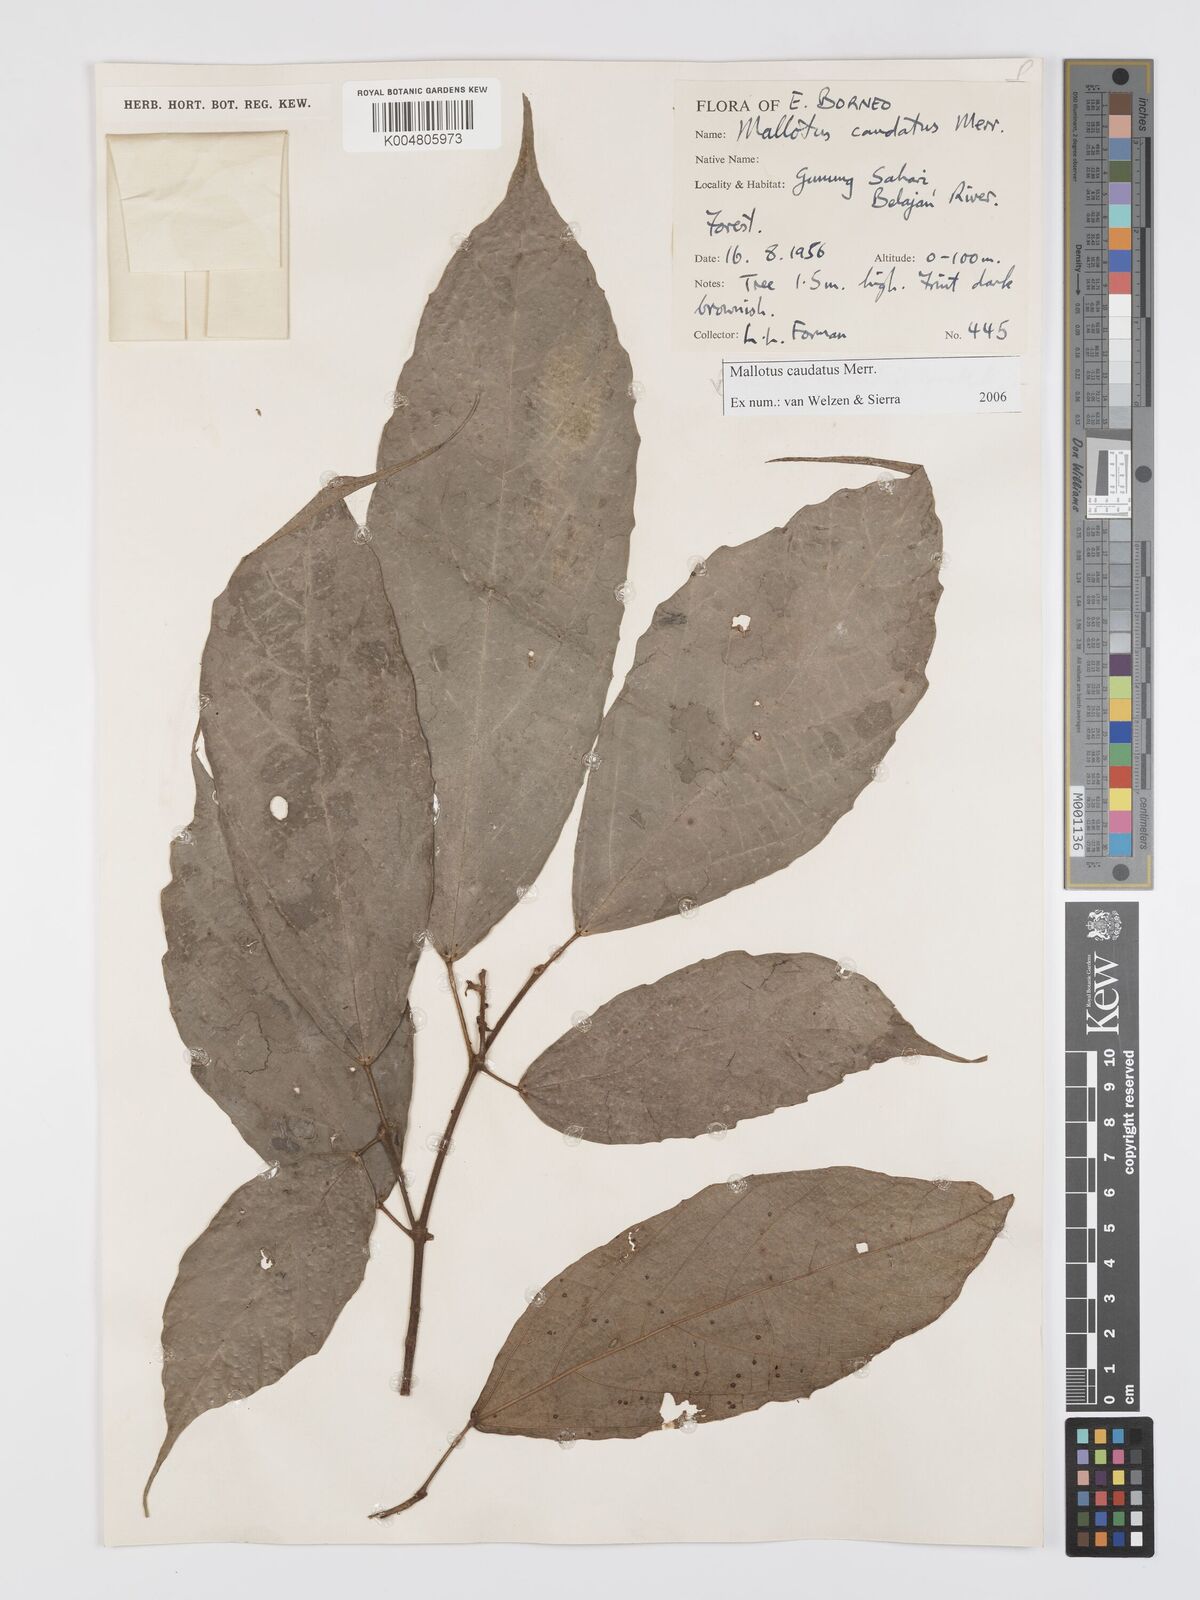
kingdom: Plantae
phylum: Tracheophyta
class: Magnoliopsida
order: Malpighiales
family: Euphorbiaceae
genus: Mallotus
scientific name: Mallotus caudatus
